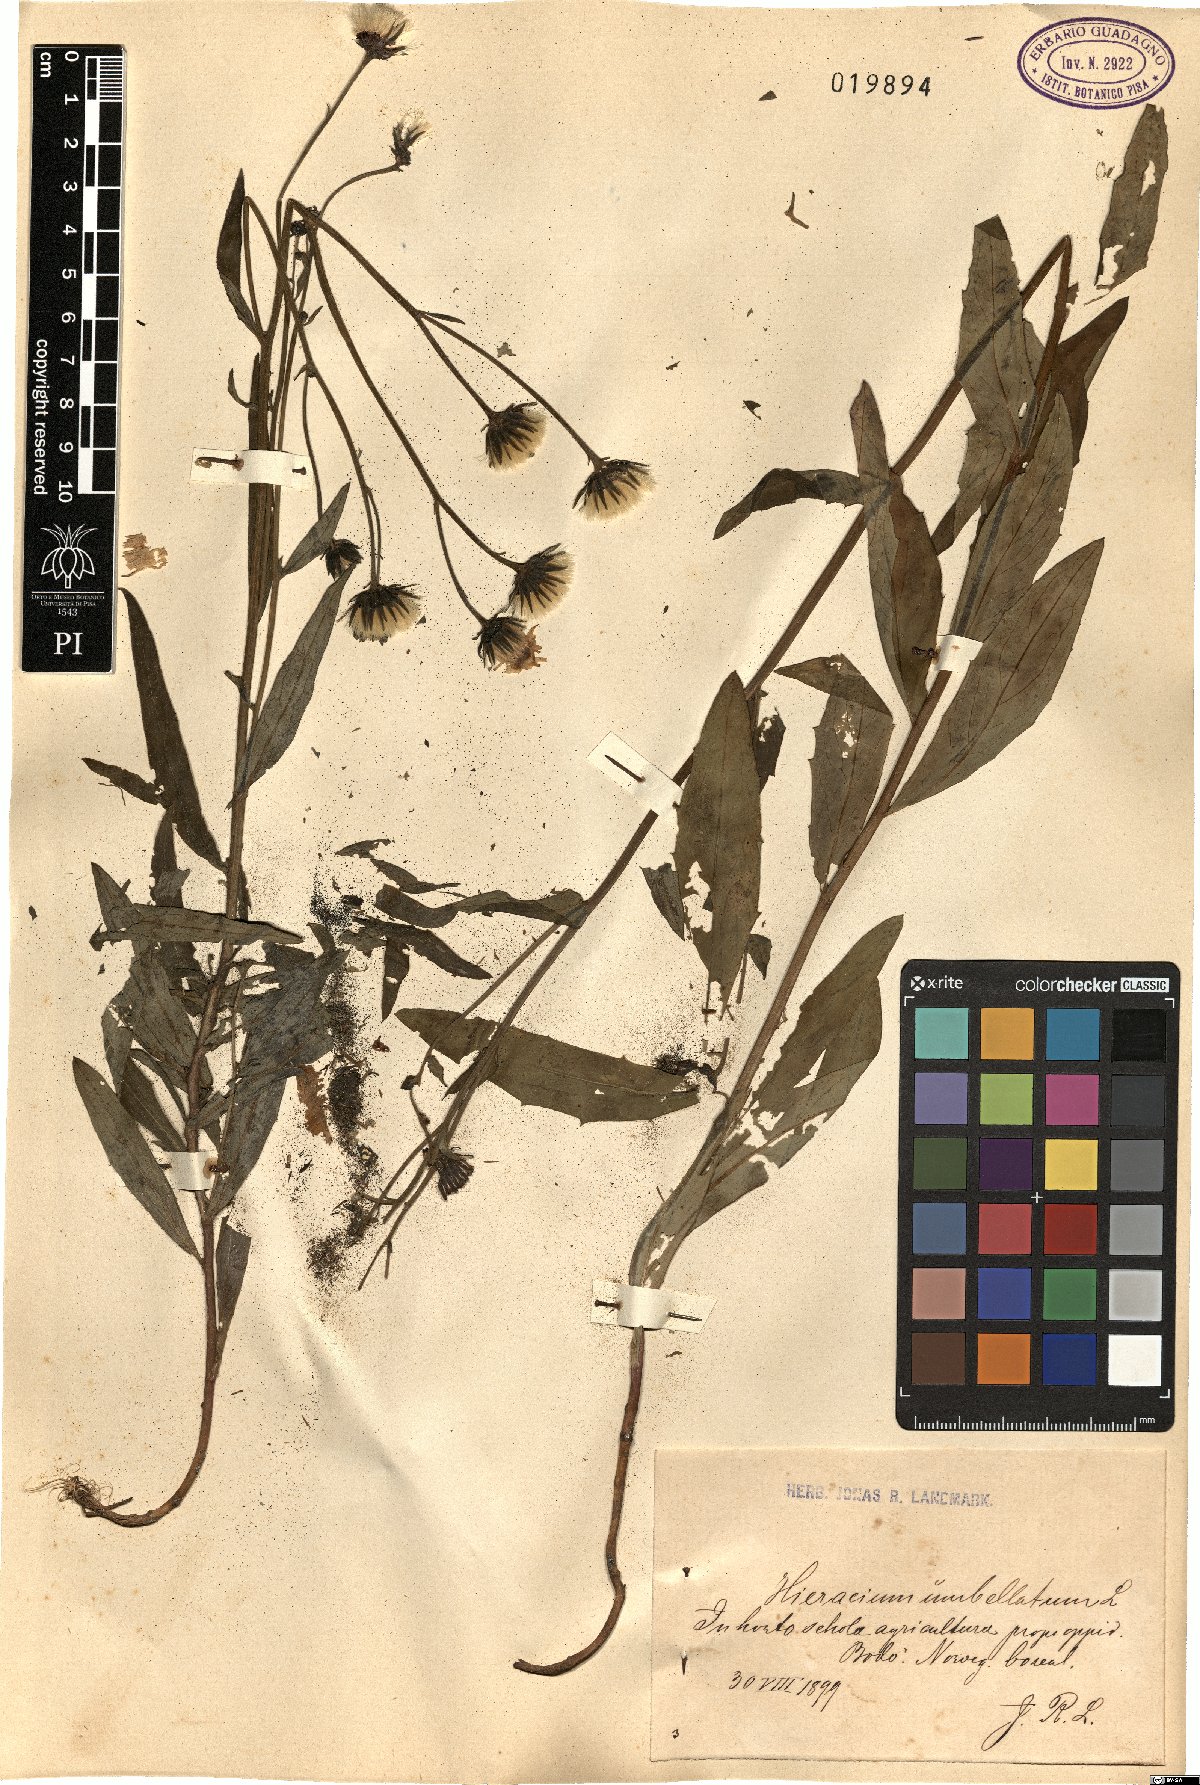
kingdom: Plantae
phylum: Tracheophyta
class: Magnoliopsida
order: Asterales
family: Asteraceae
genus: Hieracium
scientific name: Hieracium umbellatum
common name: Northern hawkweed
